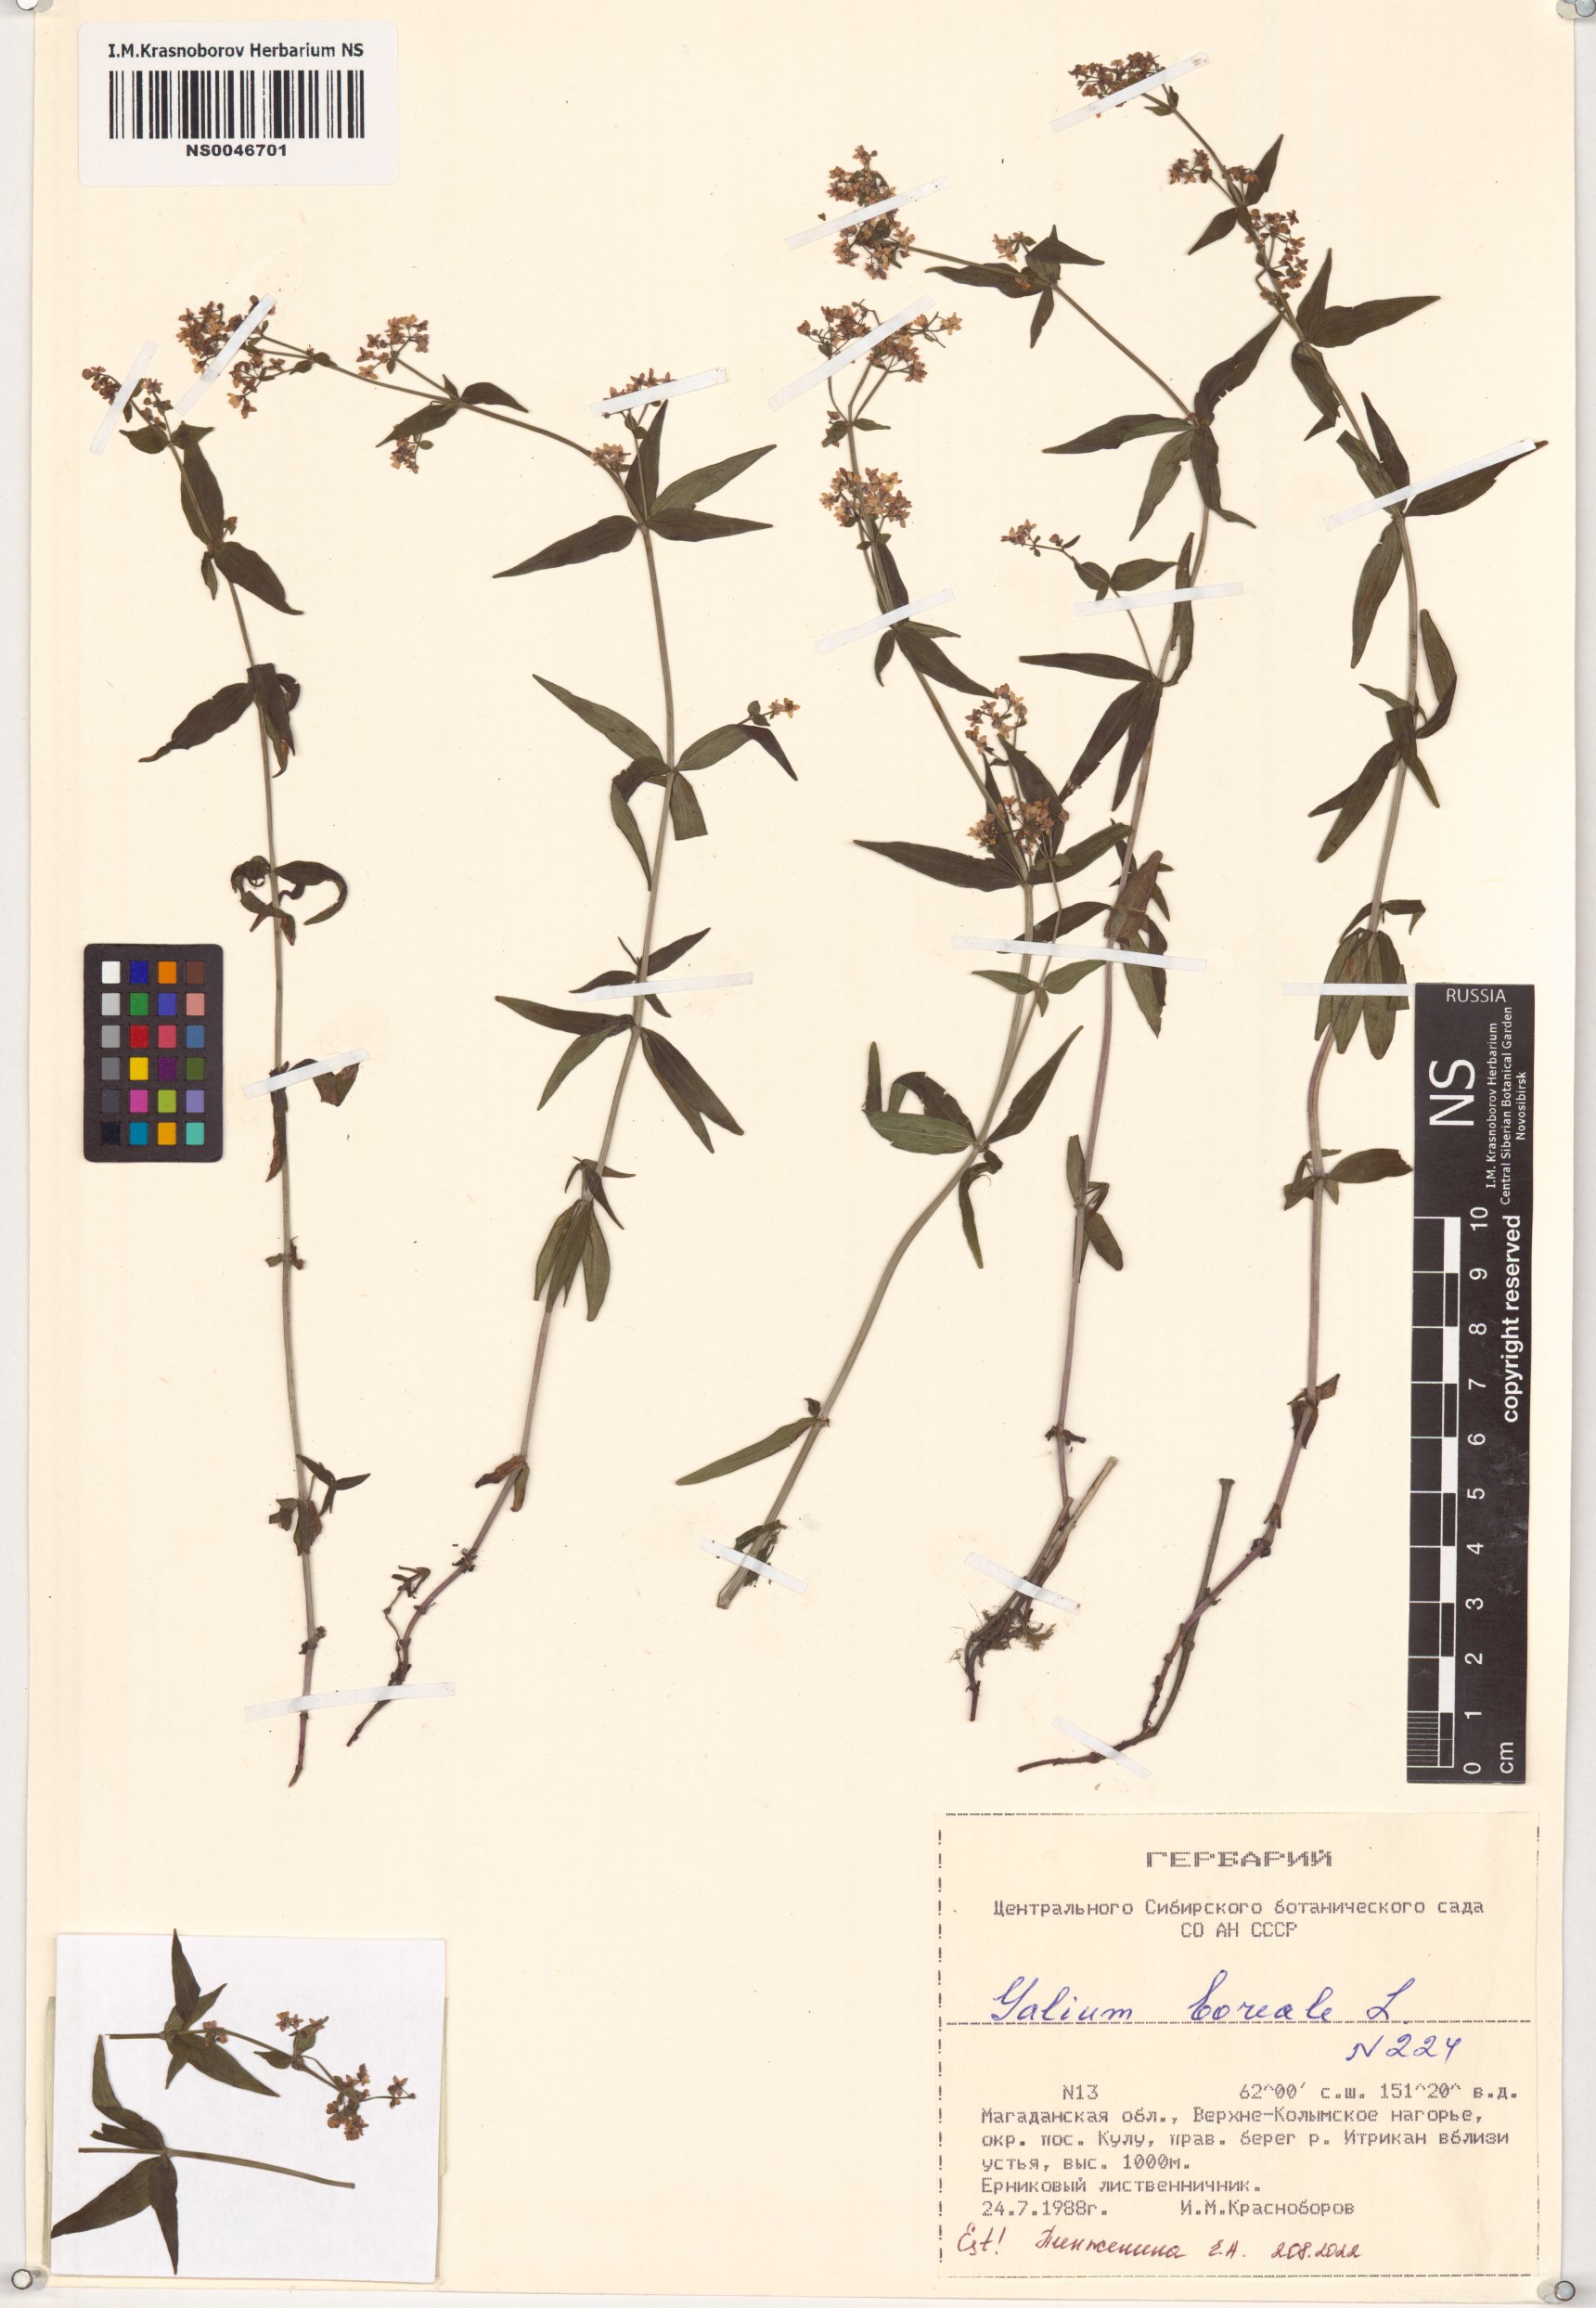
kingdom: Plantae
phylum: Tracheophyta
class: Magnoliopsida
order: Gentianales
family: Rubiaceae
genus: Galium
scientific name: Galium boreale
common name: Northern bedstraw
